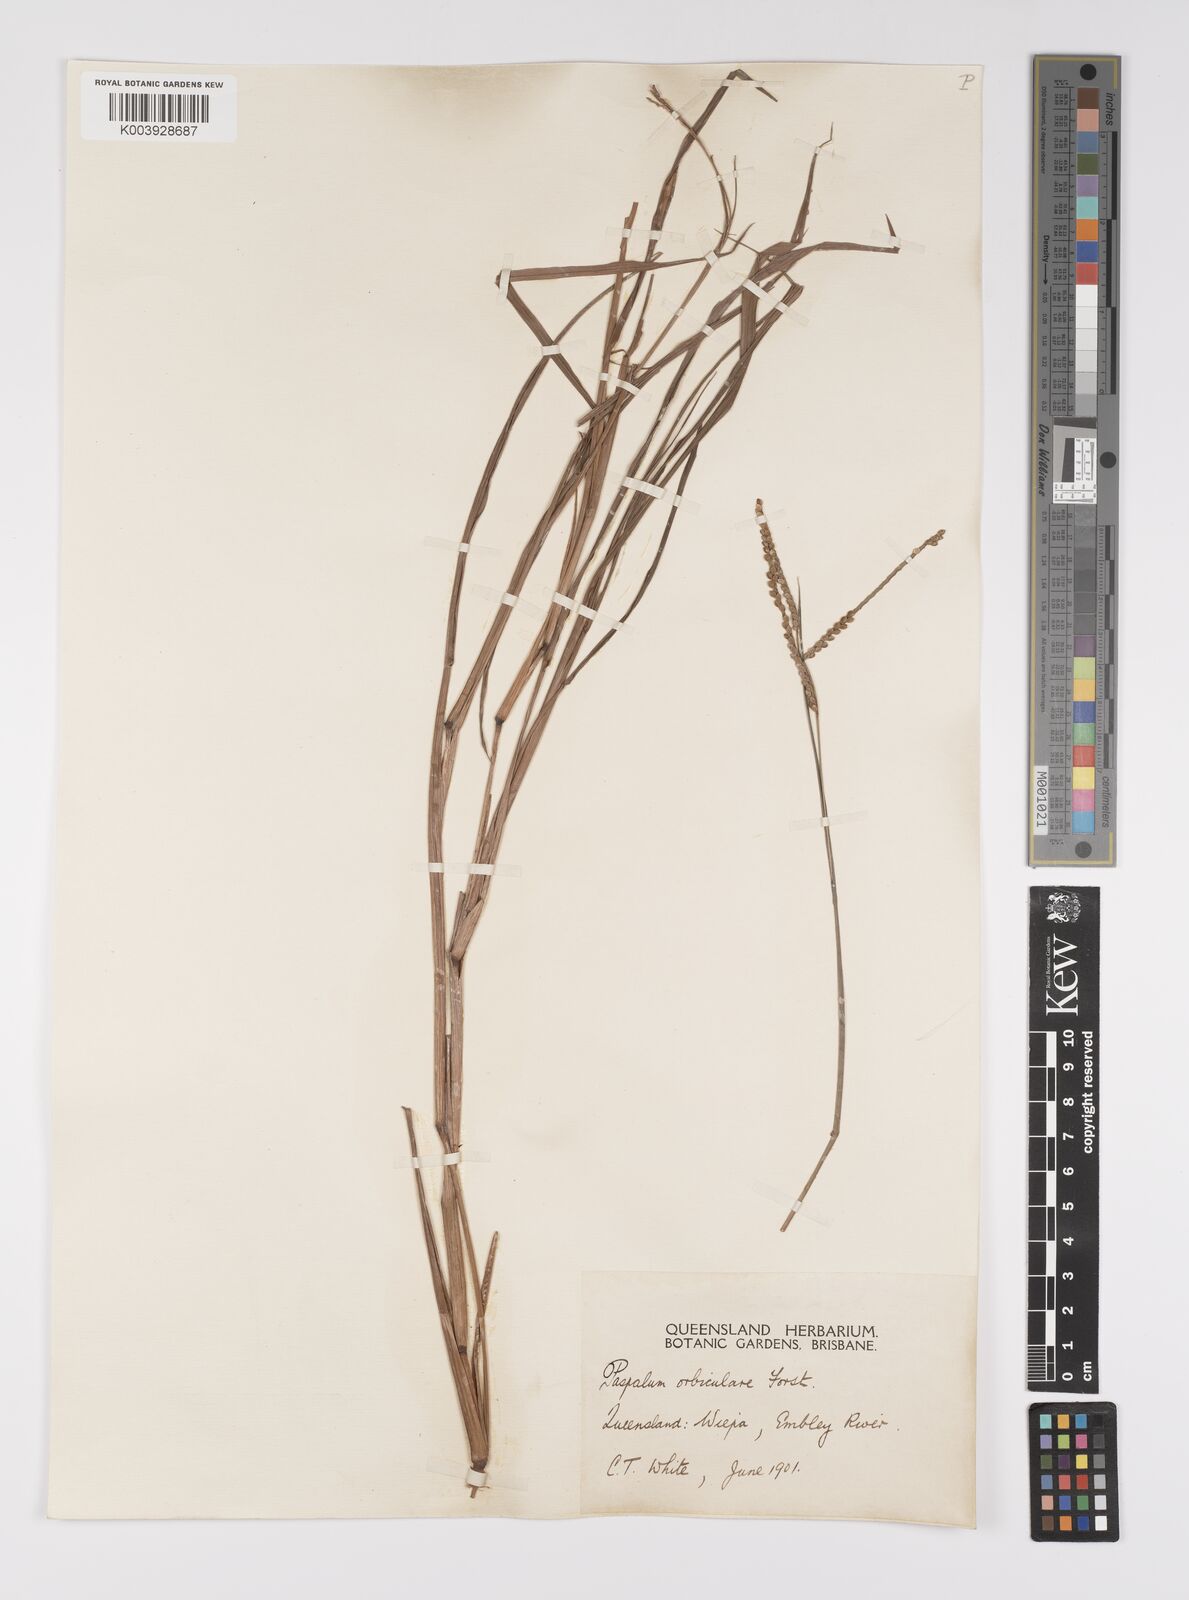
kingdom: Plantae
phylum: Tracheophyta
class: Liliopsida
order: Poales
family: Poaceae
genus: Paspalum
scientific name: Paspalum scrobiculatum
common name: Kodo millet
